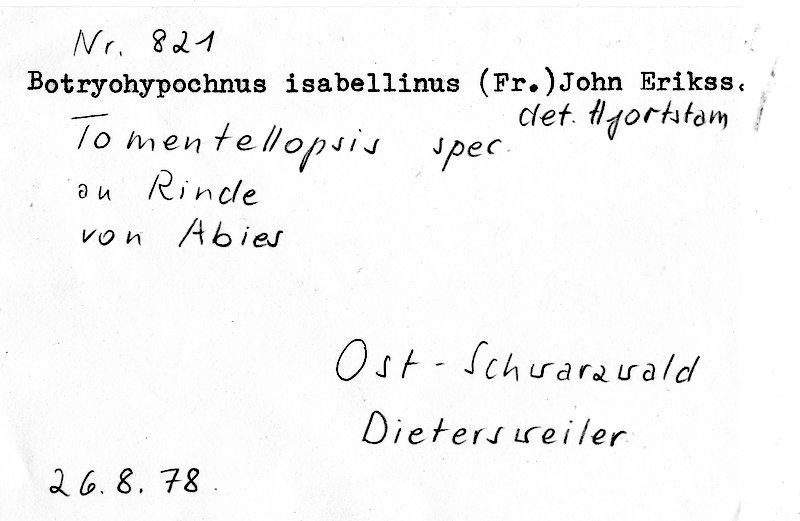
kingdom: Fungi
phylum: Basidiomycota
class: Agaricomycetes
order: Cantharellales
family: Botryobasidiaceae
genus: Botryobasidium
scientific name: Botryobasidium isabellinum
